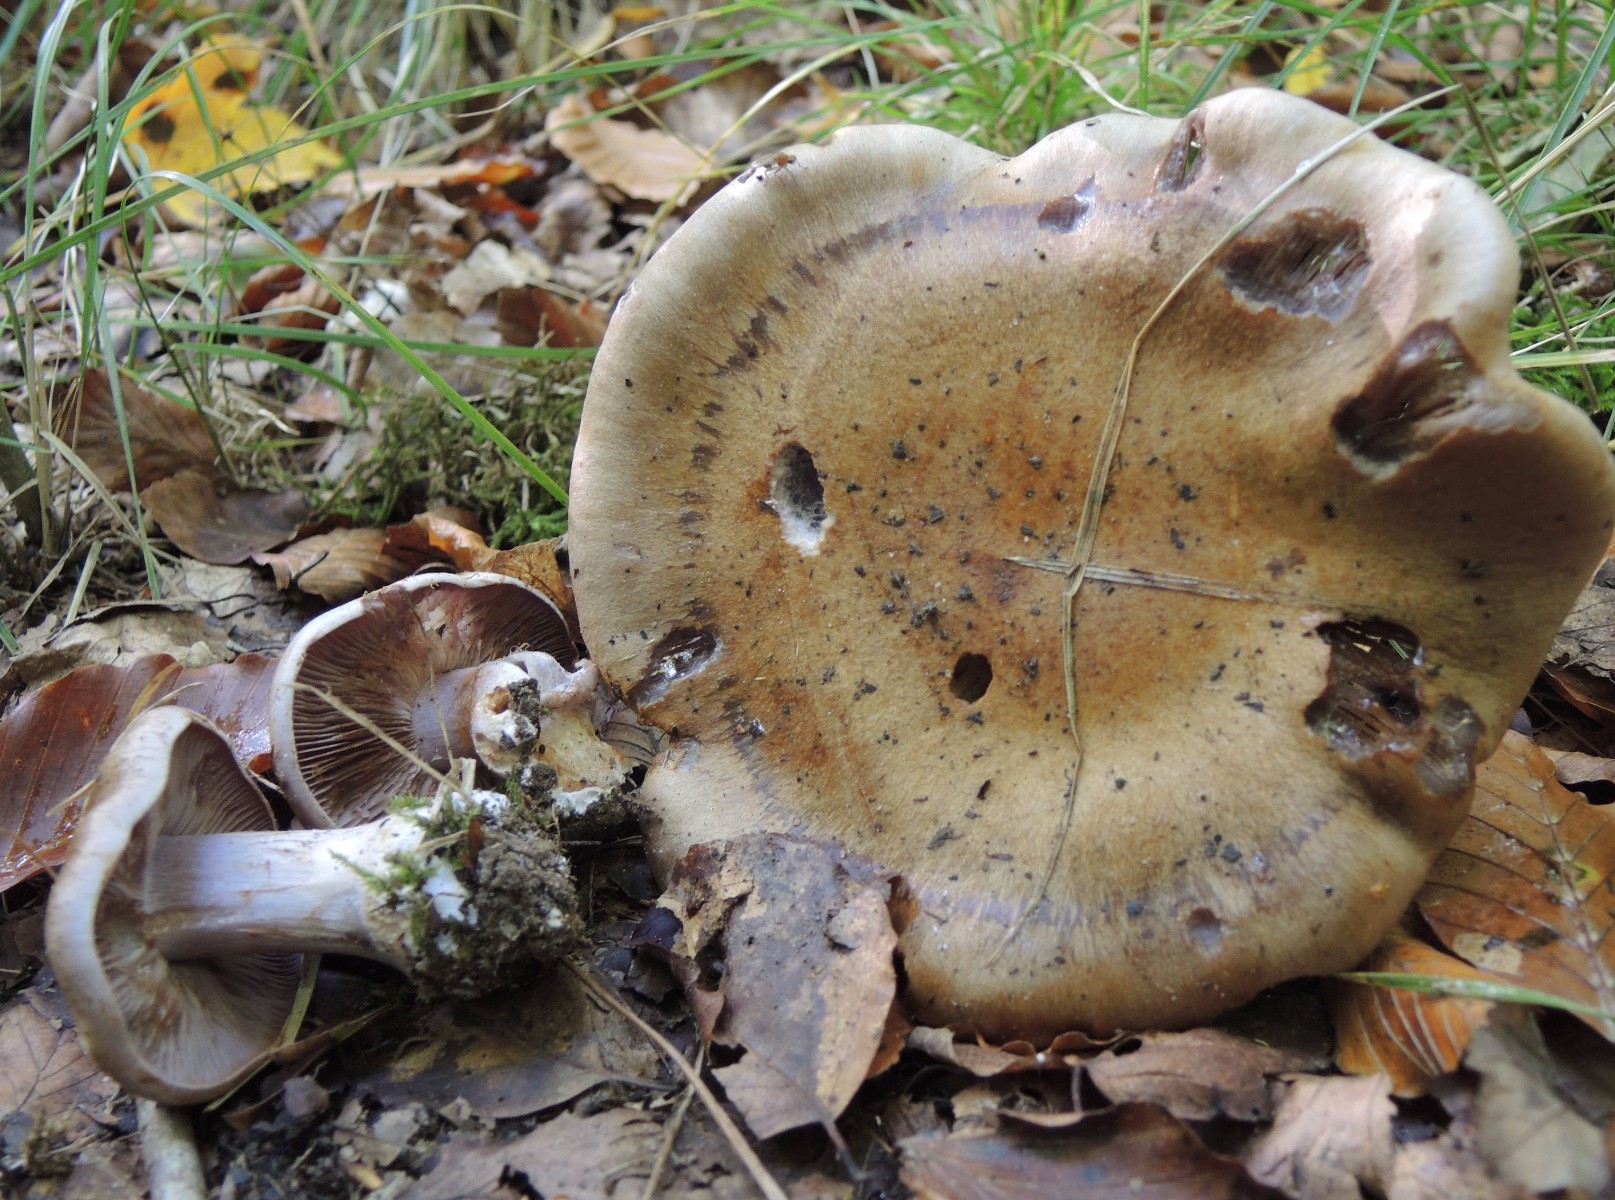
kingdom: Fungi
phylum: Basidiomycota
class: Agaricomycetes
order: Agaricales
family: Cortinariaceae
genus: Thaxterogaster
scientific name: Thaxterogaster purpurascens
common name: purpurbrun slørhat
